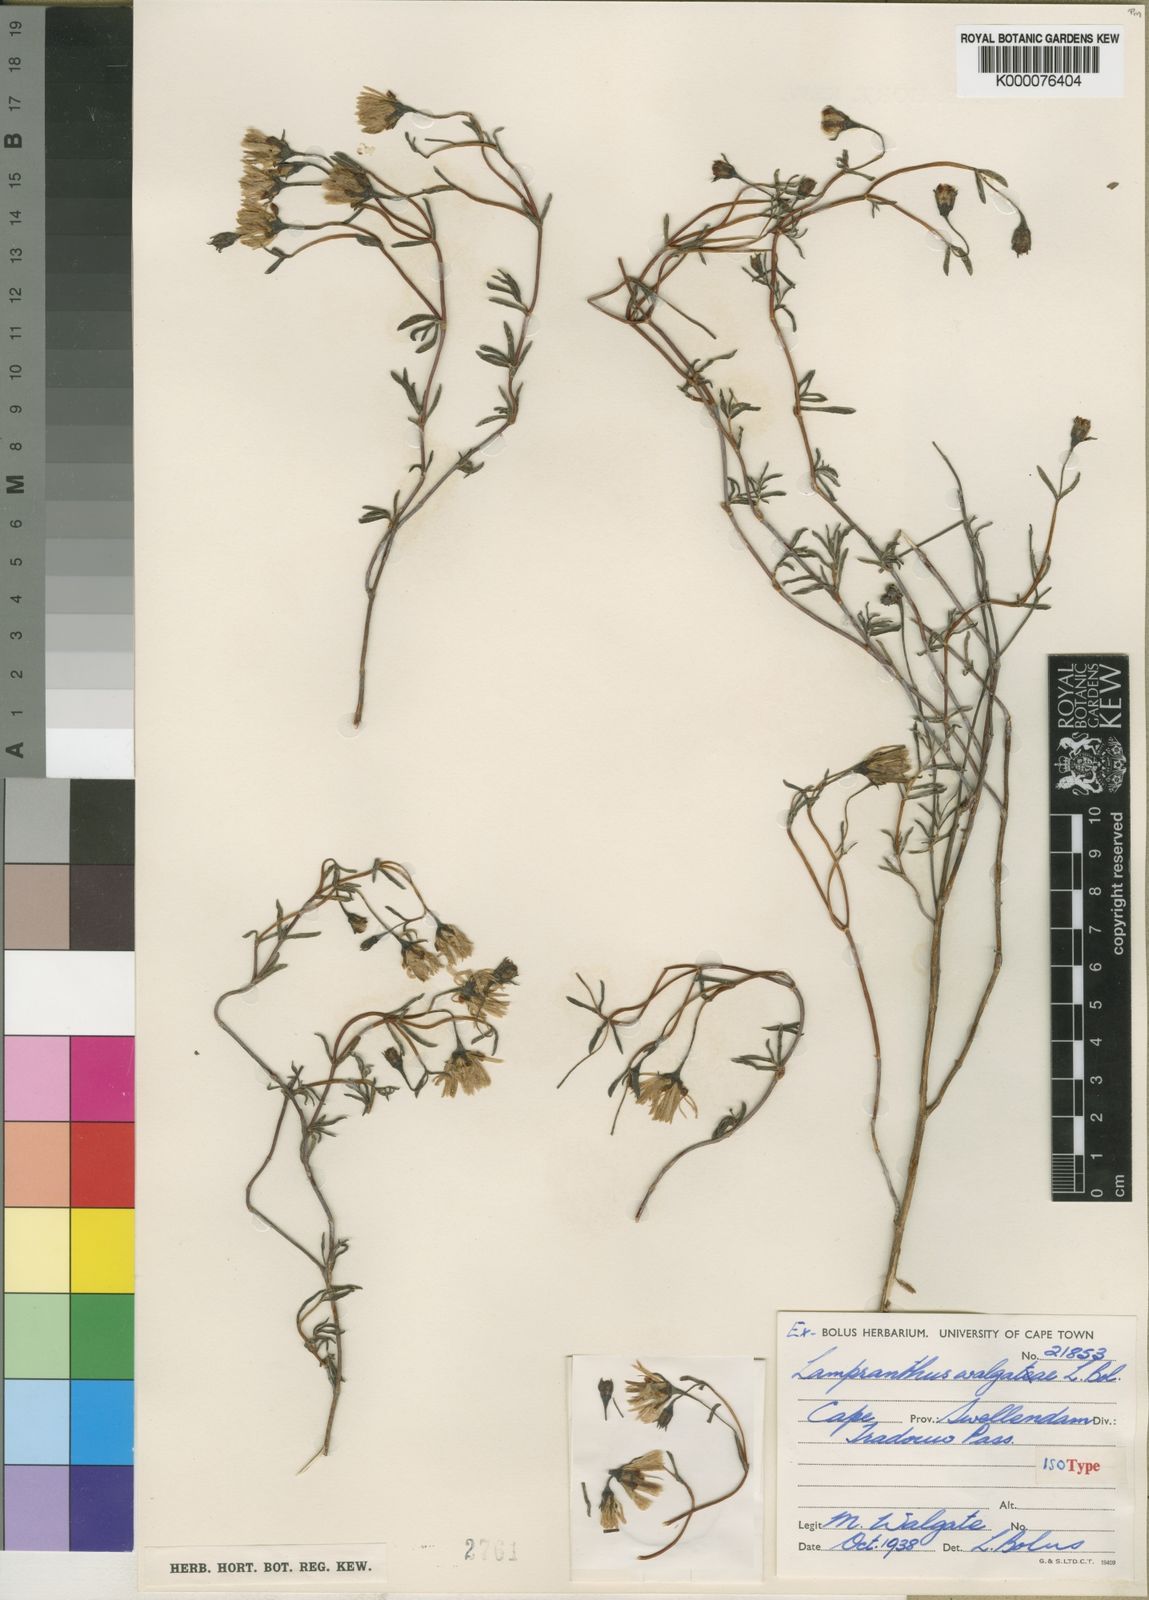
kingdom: Plantae
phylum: Tracheophyta
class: Magnoliopsida
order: Caryophyllales
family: Aizoaceae
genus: Lampranthus
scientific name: Lampranthus walgateae
